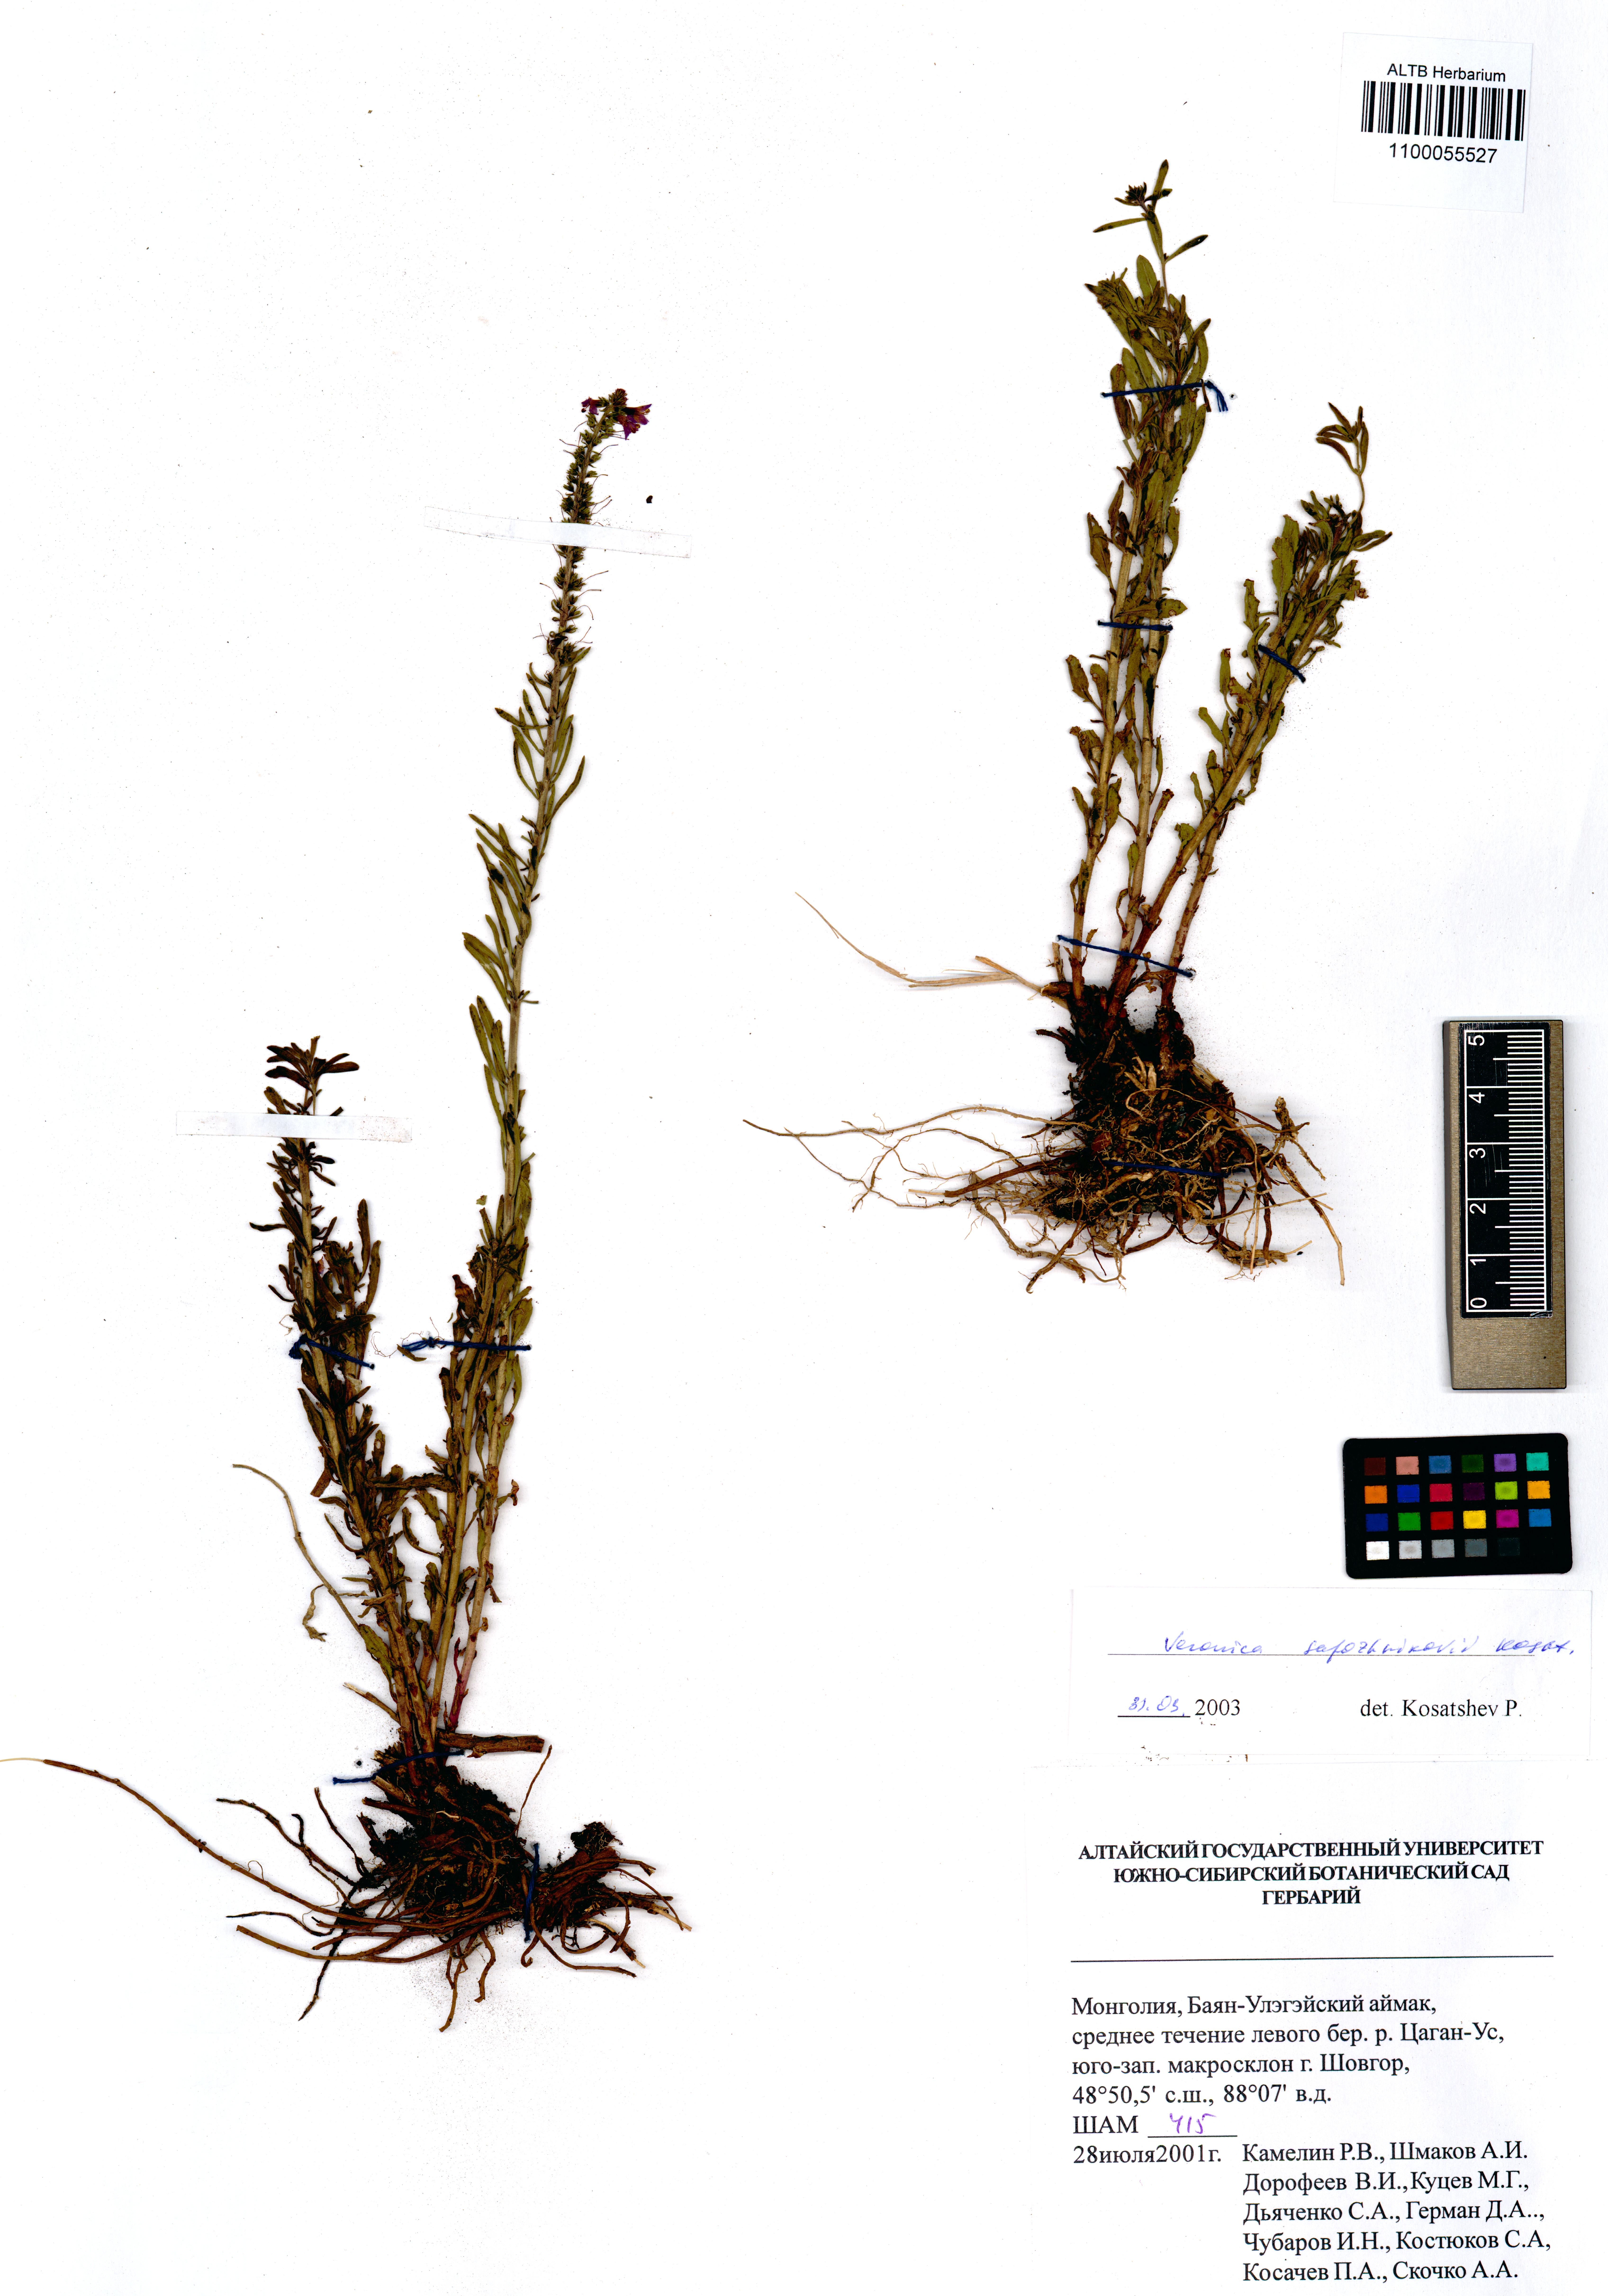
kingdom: Plantae
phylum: Tracheophyta
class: Magnoliopsida
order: Lamiales
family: Plantaginaceae
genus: Veronica
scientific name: Veronica sapozhnikovii
